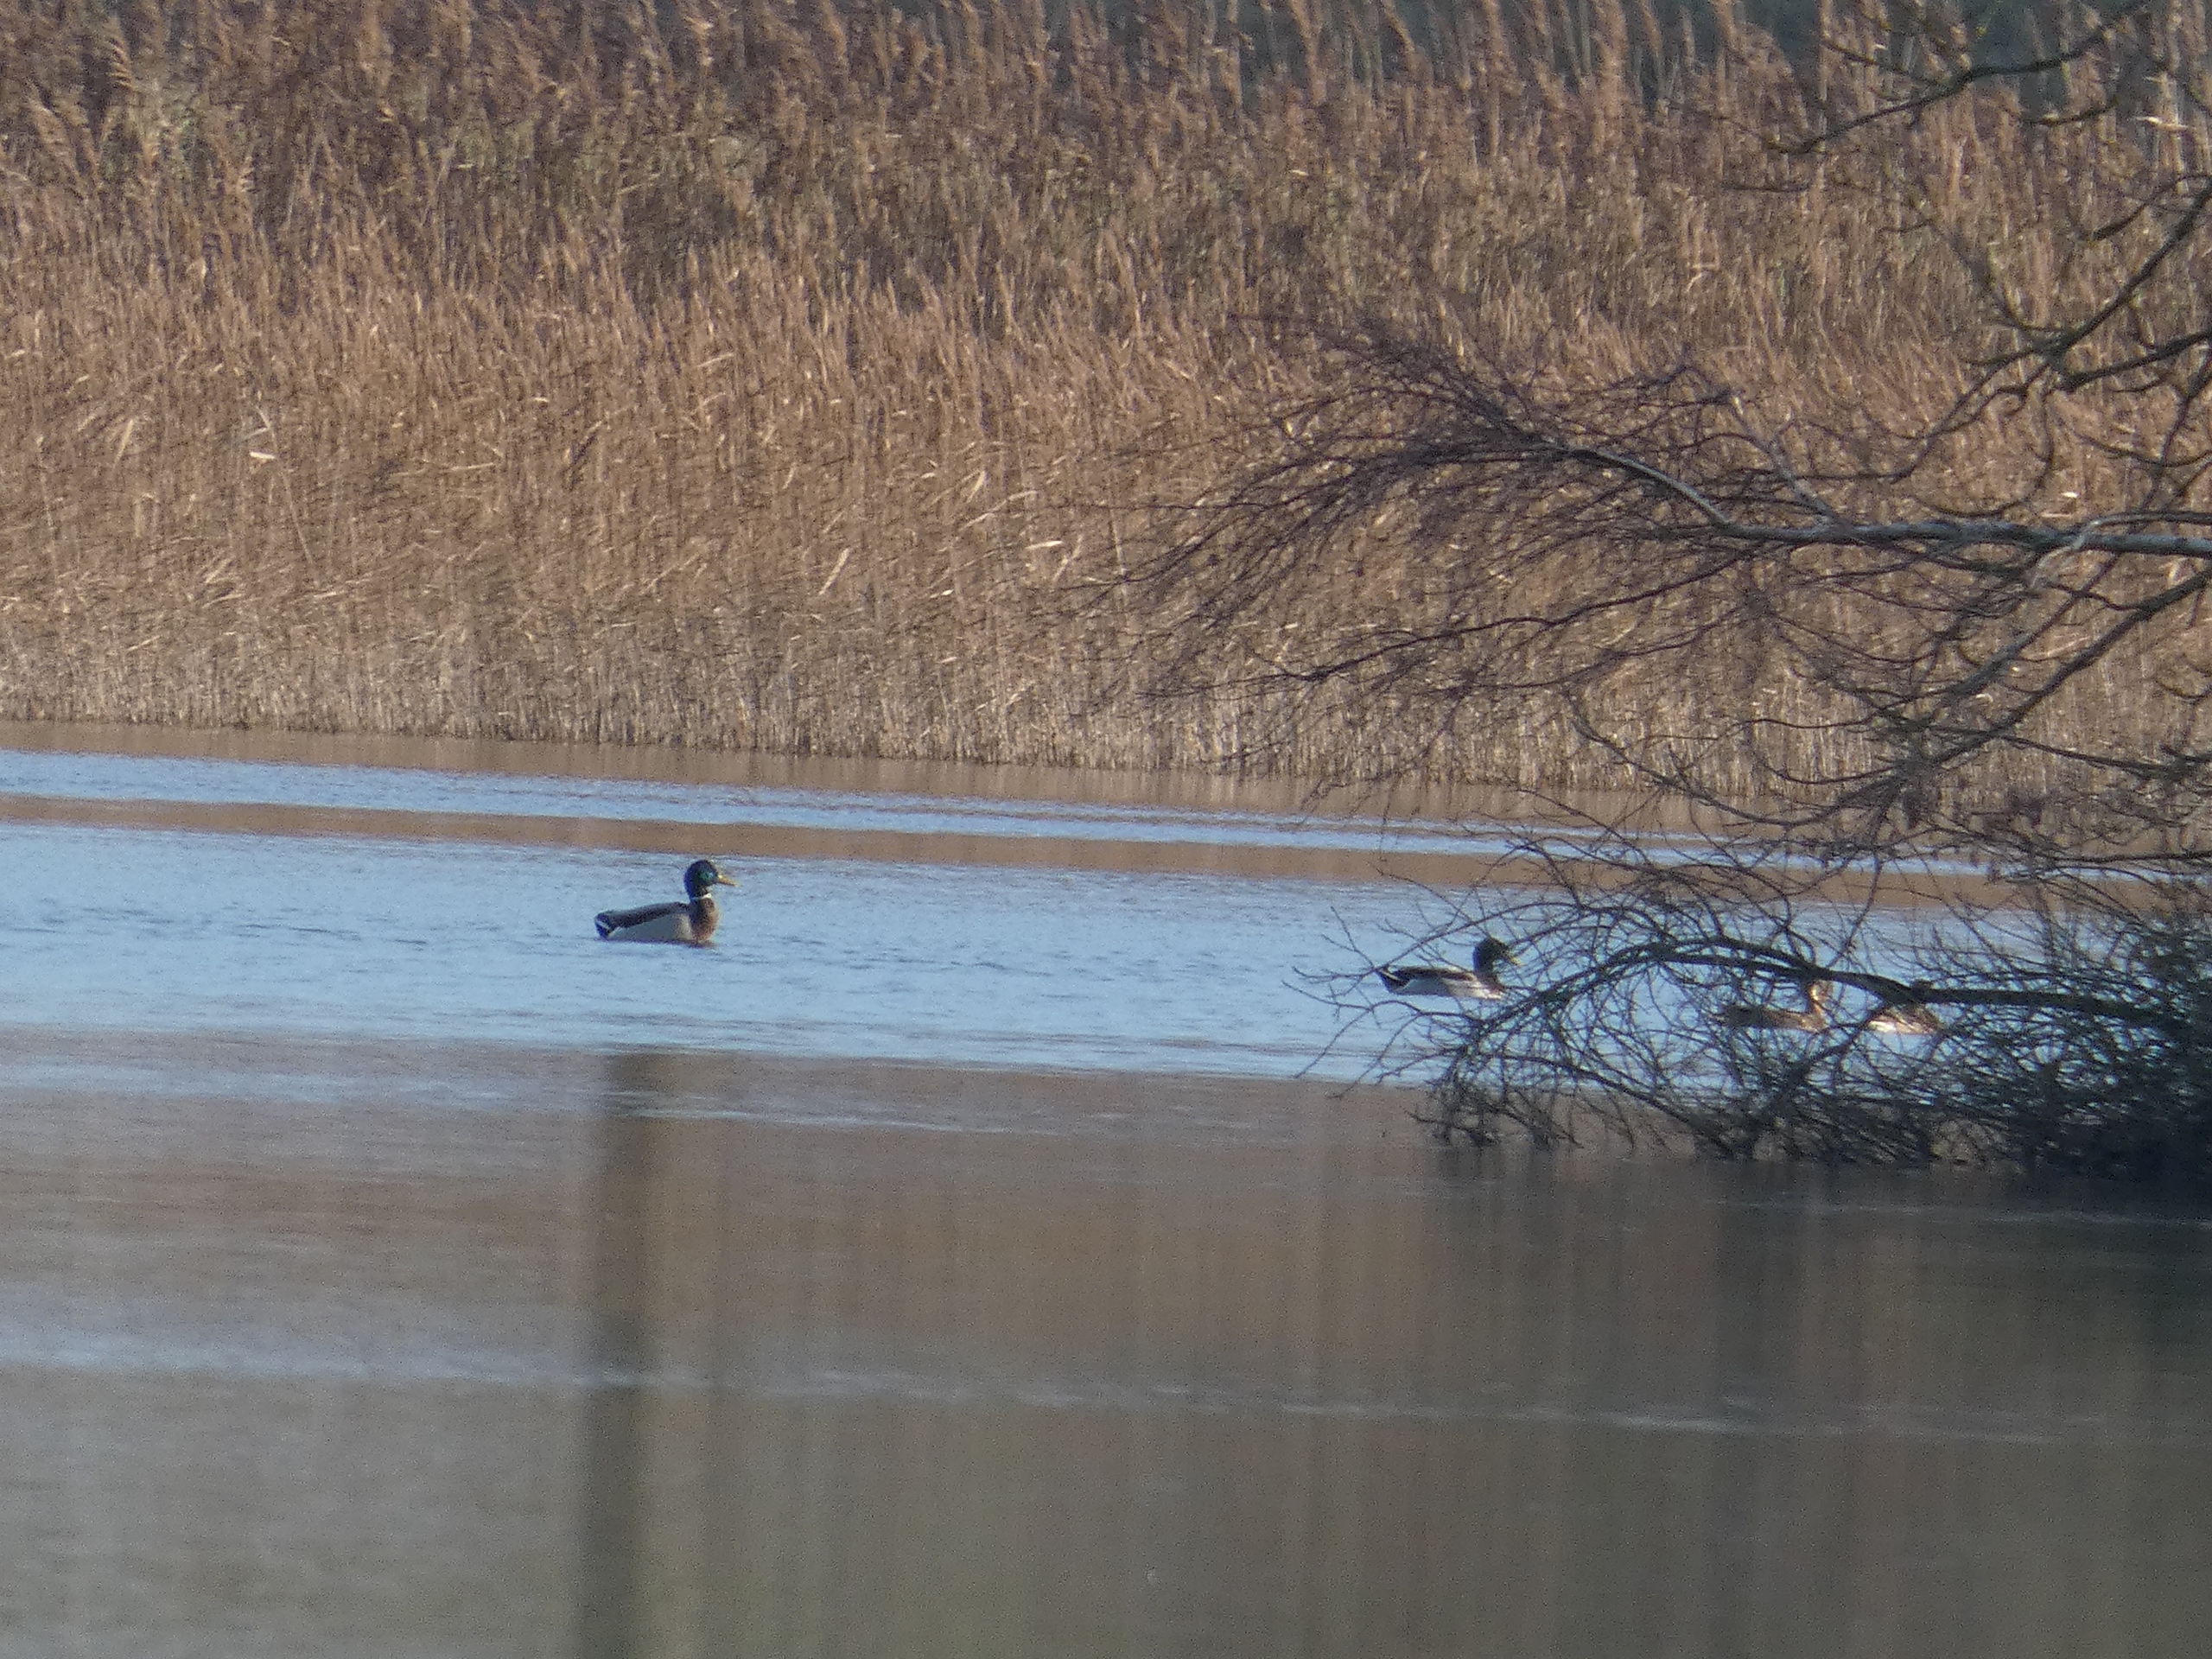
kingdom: Animalia
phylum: Chordata
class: Aves
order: Anseriformes
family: Anatidae
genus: Anas
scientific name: Anas platyrhynchos
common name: Gråand
